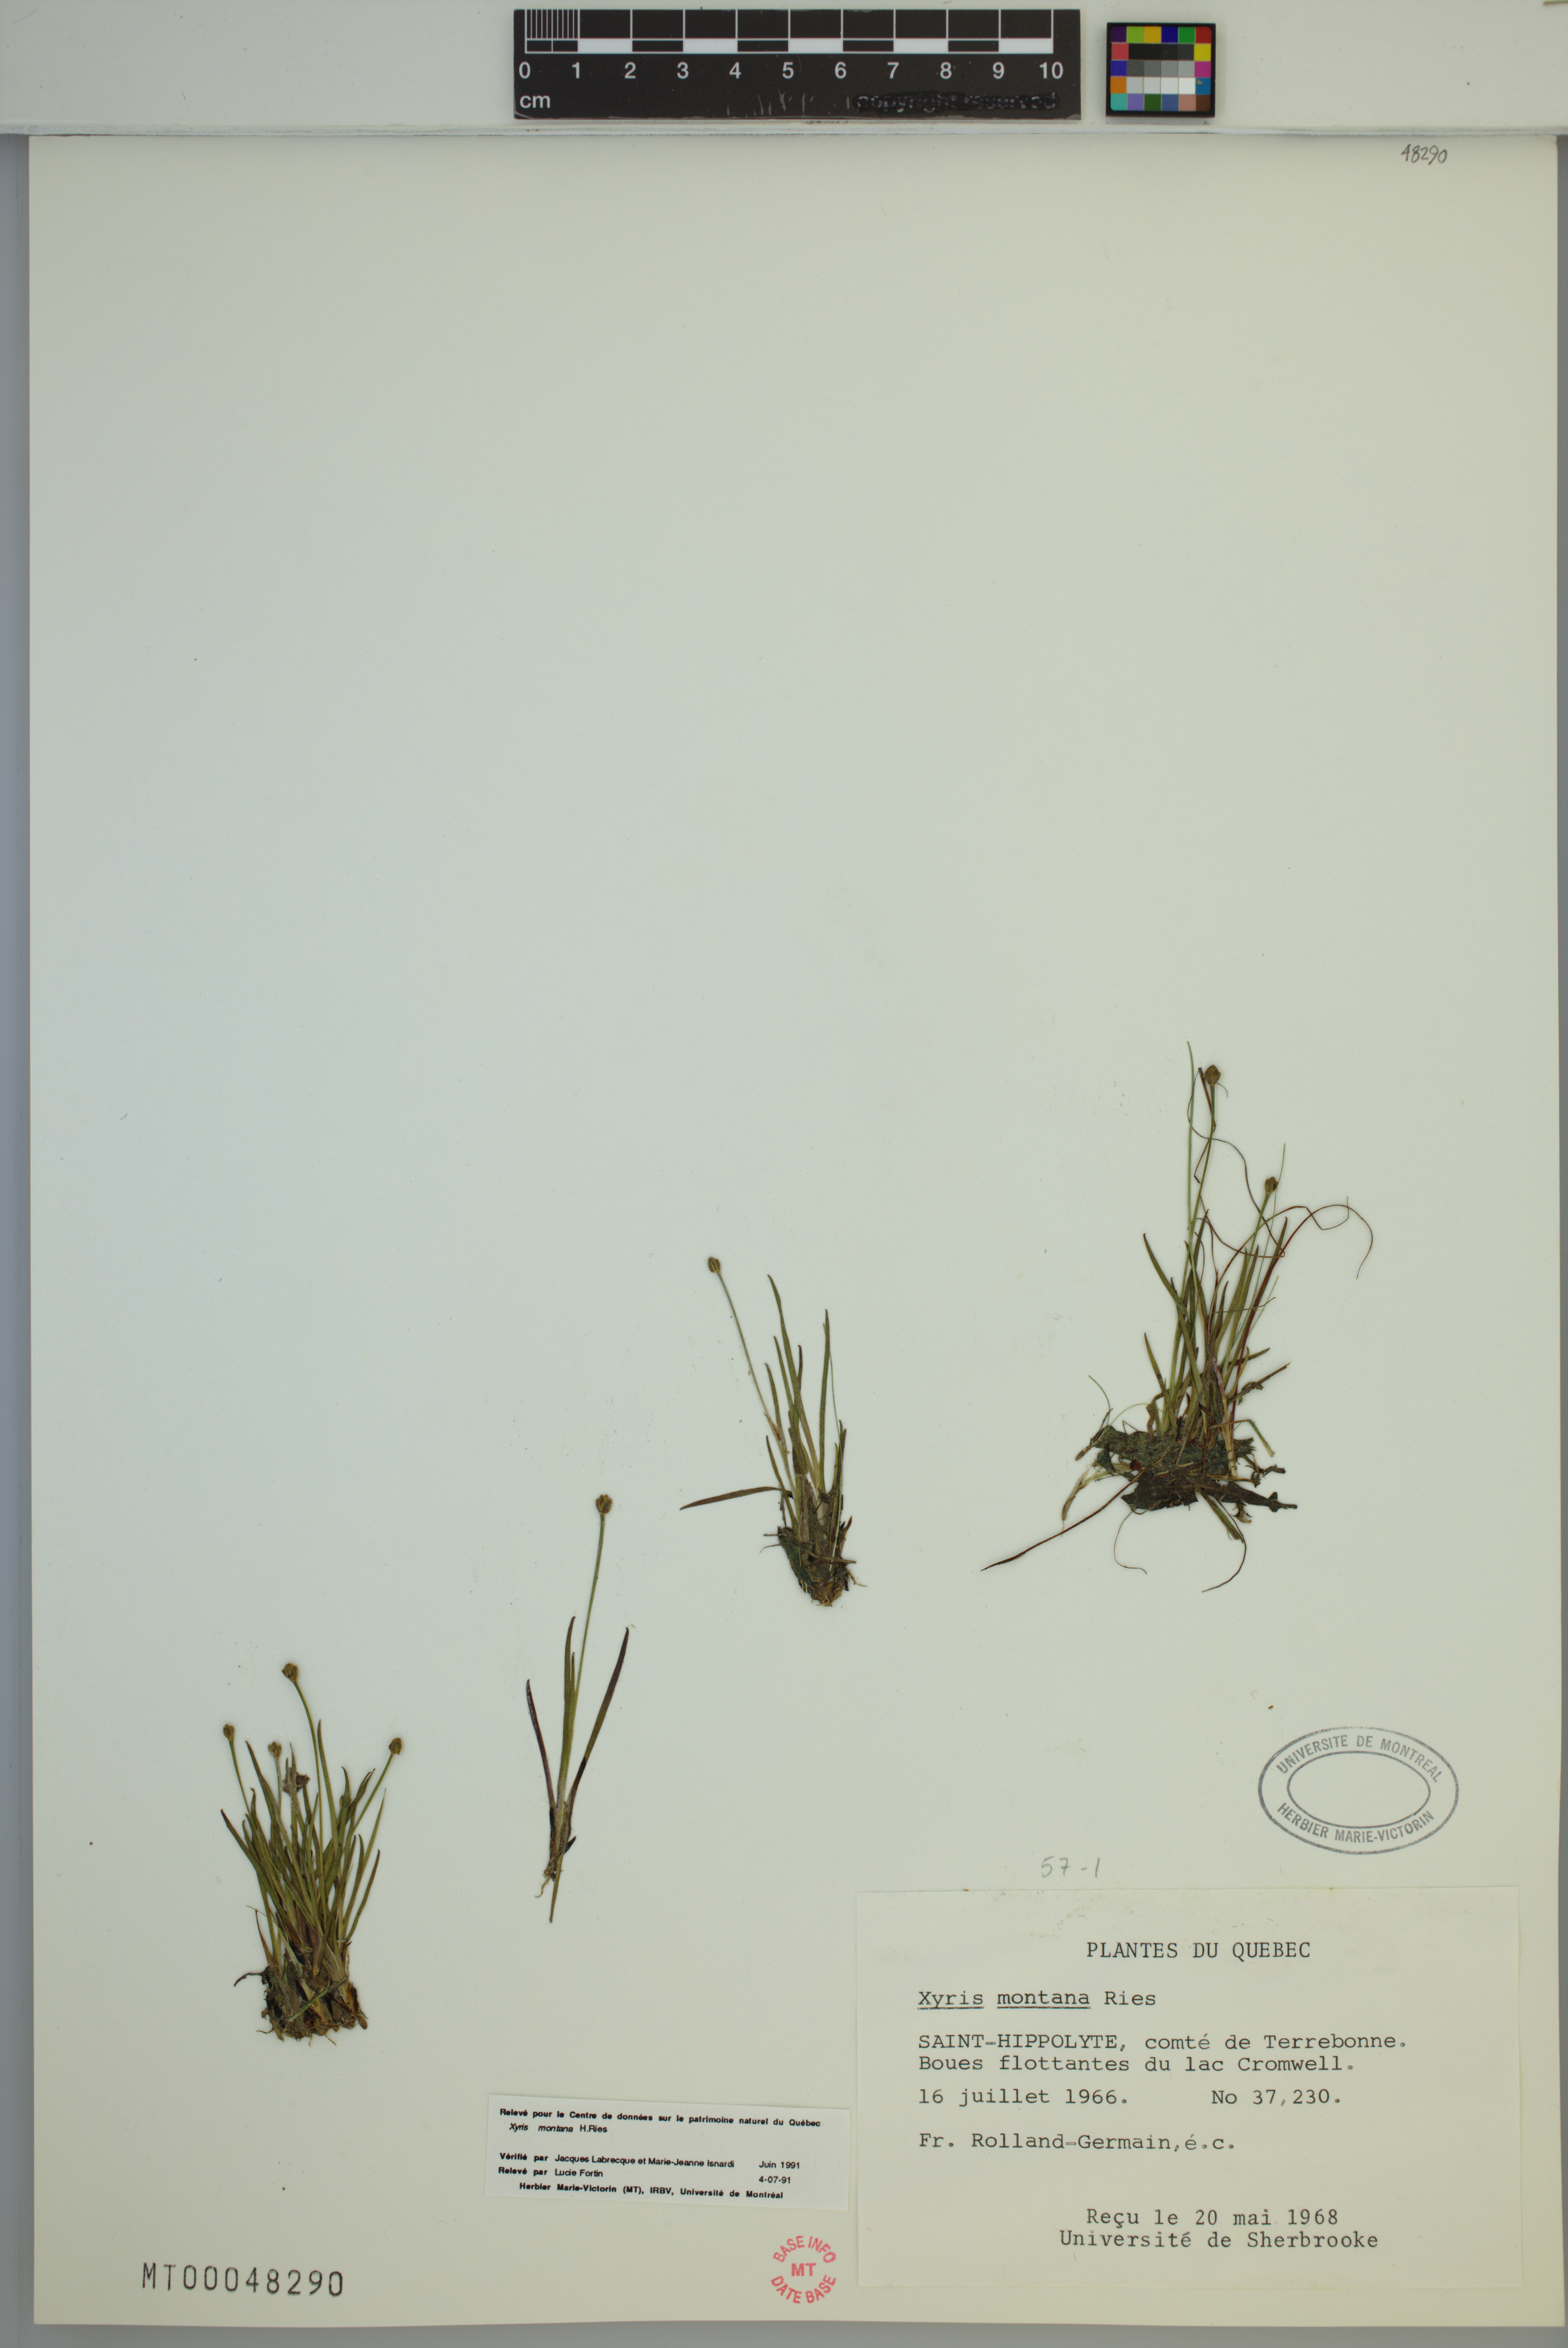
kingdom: Plantae
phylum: Tracheophyta
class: Liliopsida
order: Poales
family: Xyridaceae
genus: Xyris
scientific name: Xyris montana
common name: Northern yellow-eyed-grass
